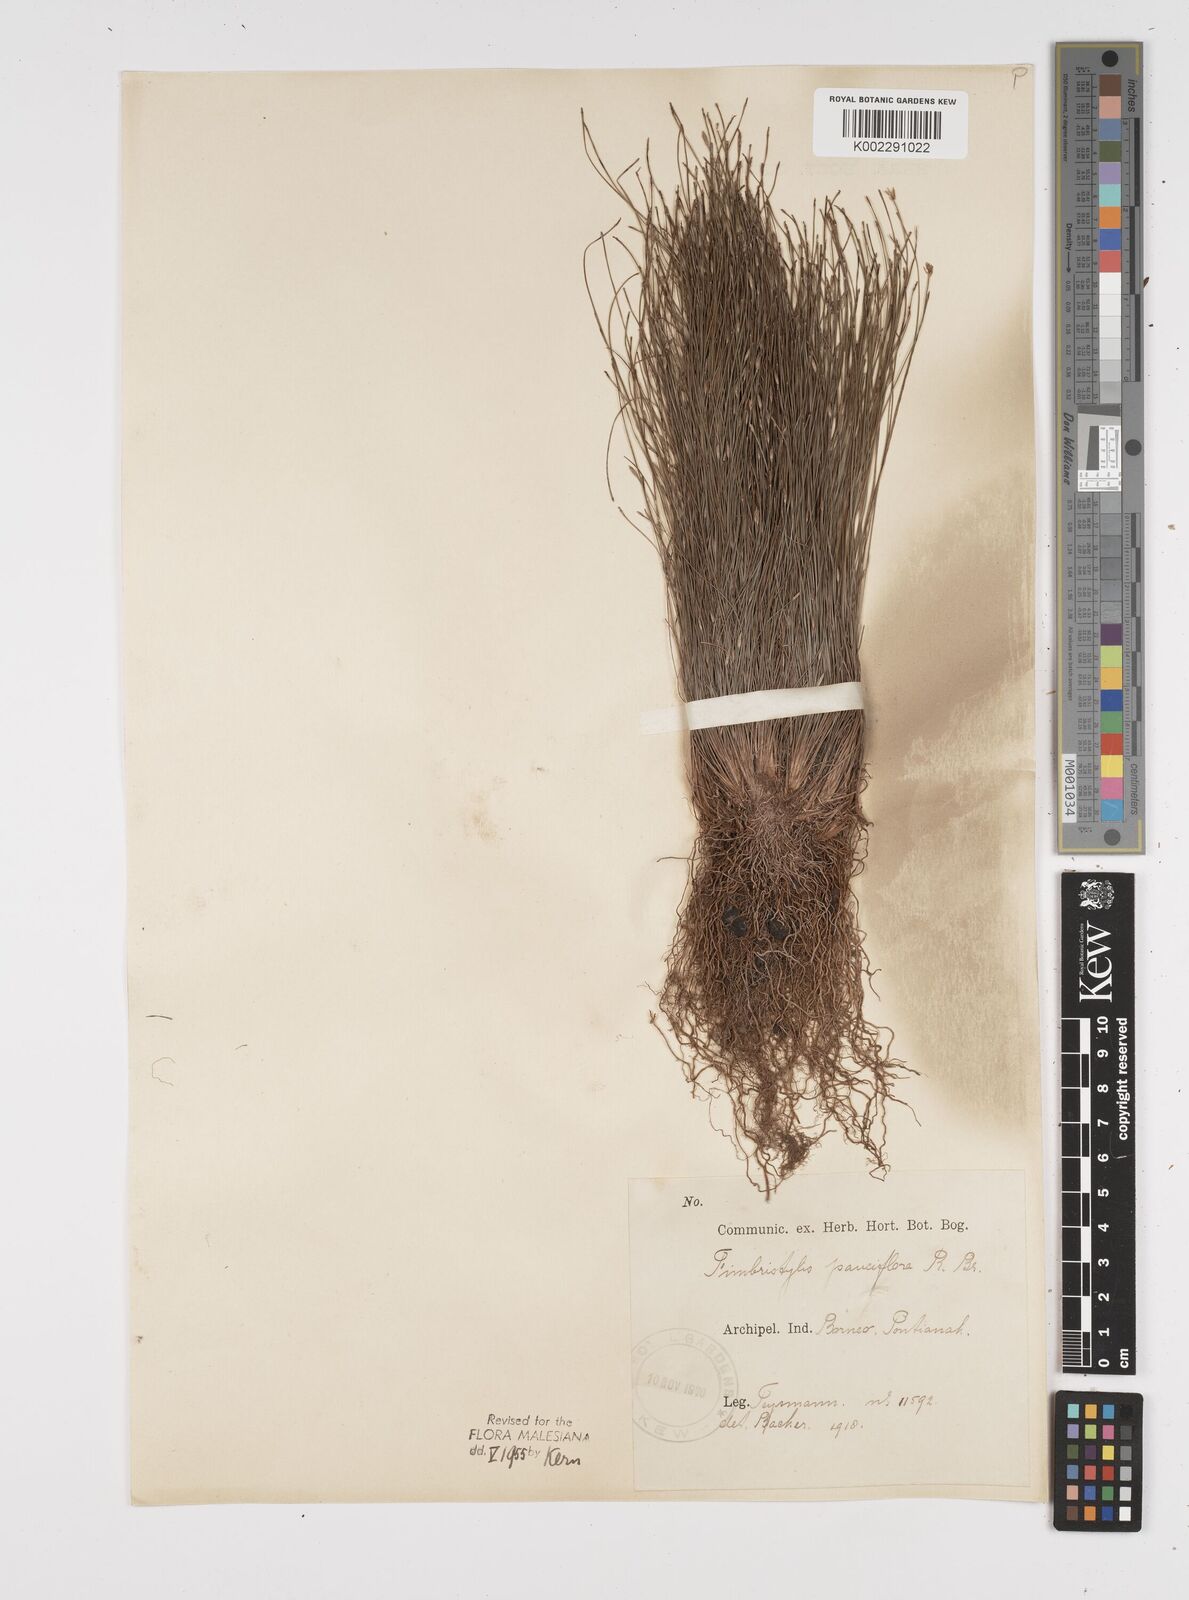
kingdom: Plantae
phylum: Tracheophyta
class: Liliopsida
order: Poales
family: Cyperaceae
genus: Fimbristylis
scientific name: Fimbristylis pauciflora
